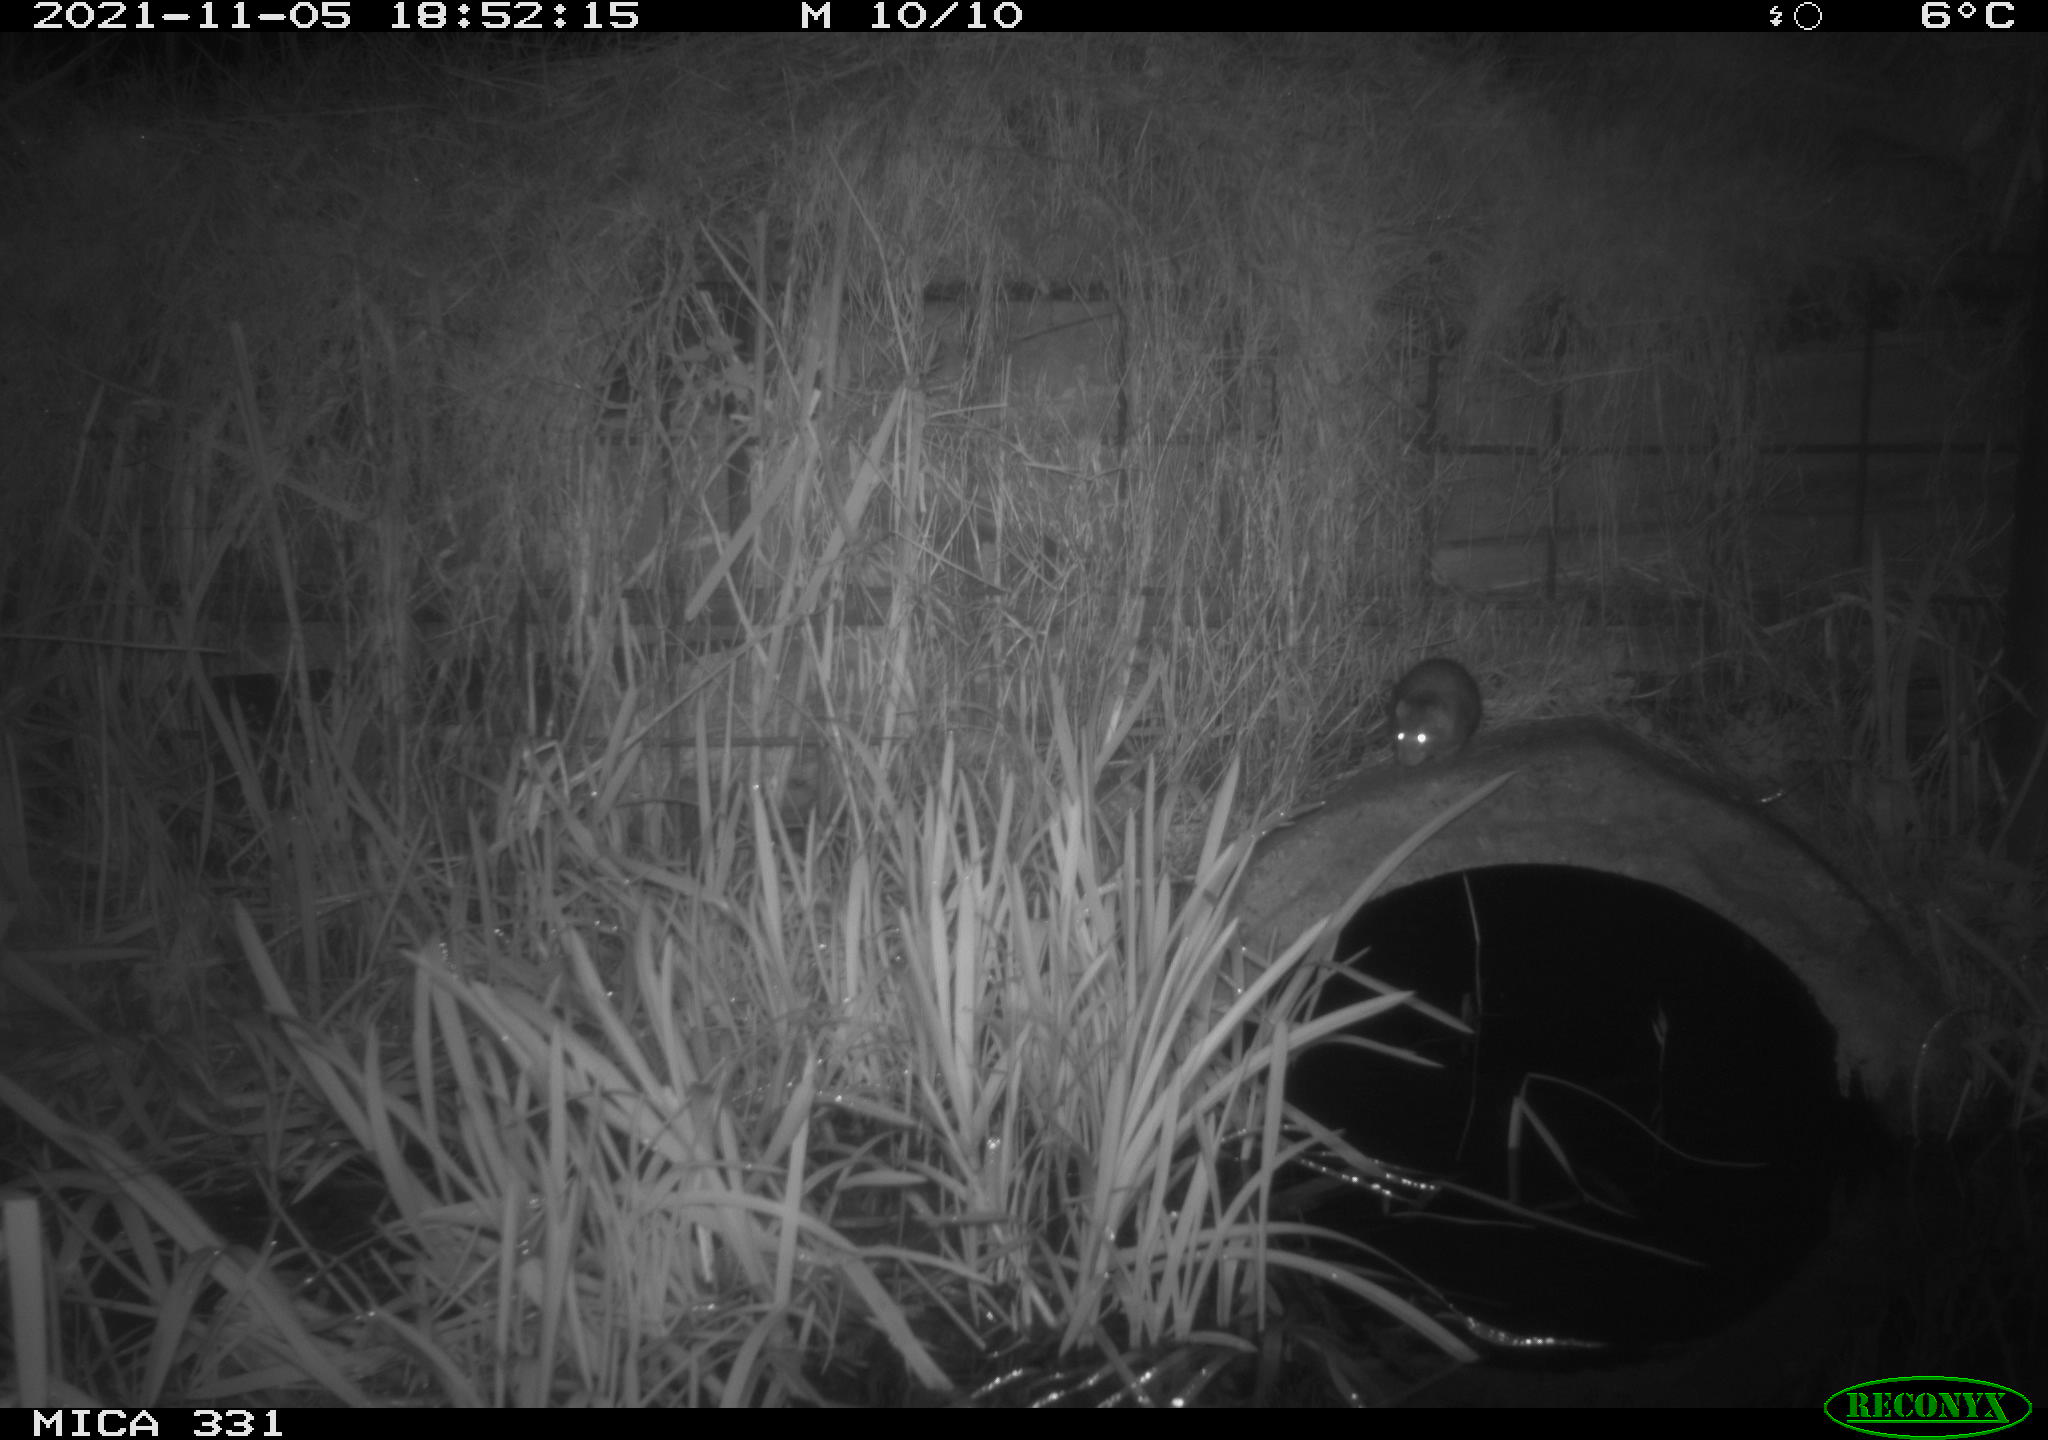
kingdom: Animalia
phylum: Chordata
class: Mammalia
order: Rodentia
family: Muridae
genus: Rattus
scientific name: Rattus norvegicus
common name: Brown rat
